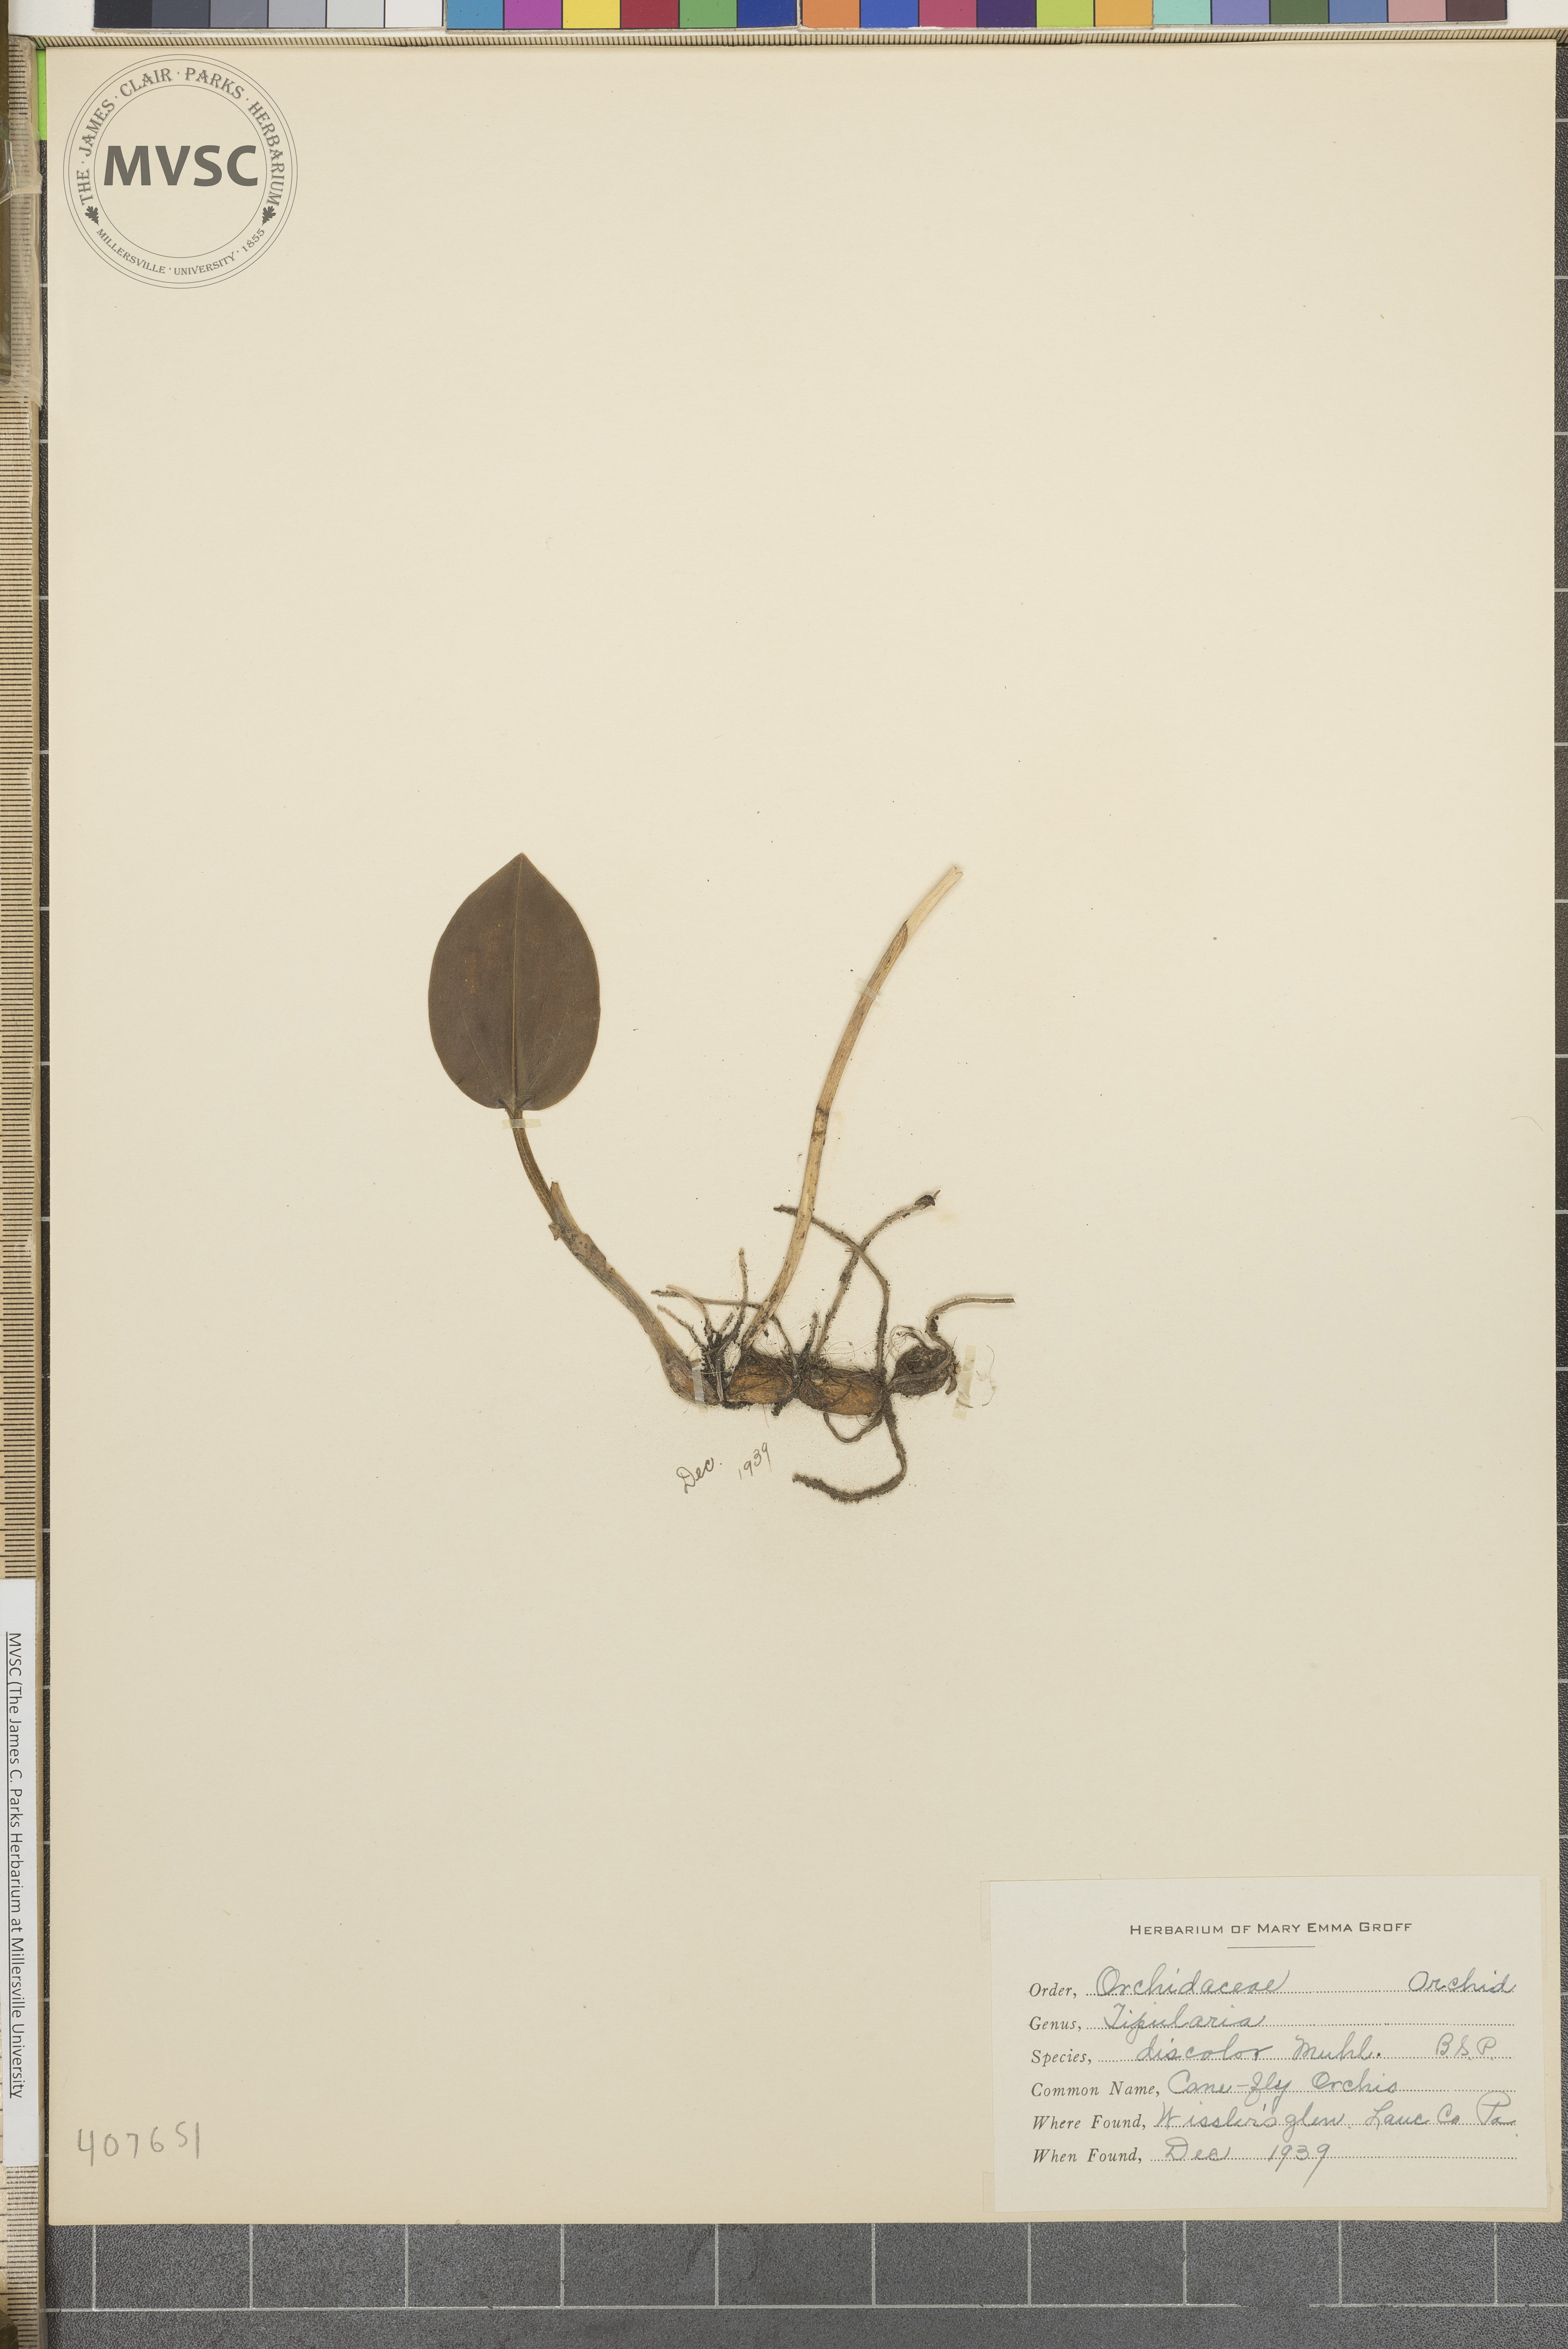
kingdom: Plantae
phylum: Tracheophyta
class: Liliopsida
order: Asparagales
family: Orchidaceae
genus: Tipularia
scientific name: Tipularia discolor
